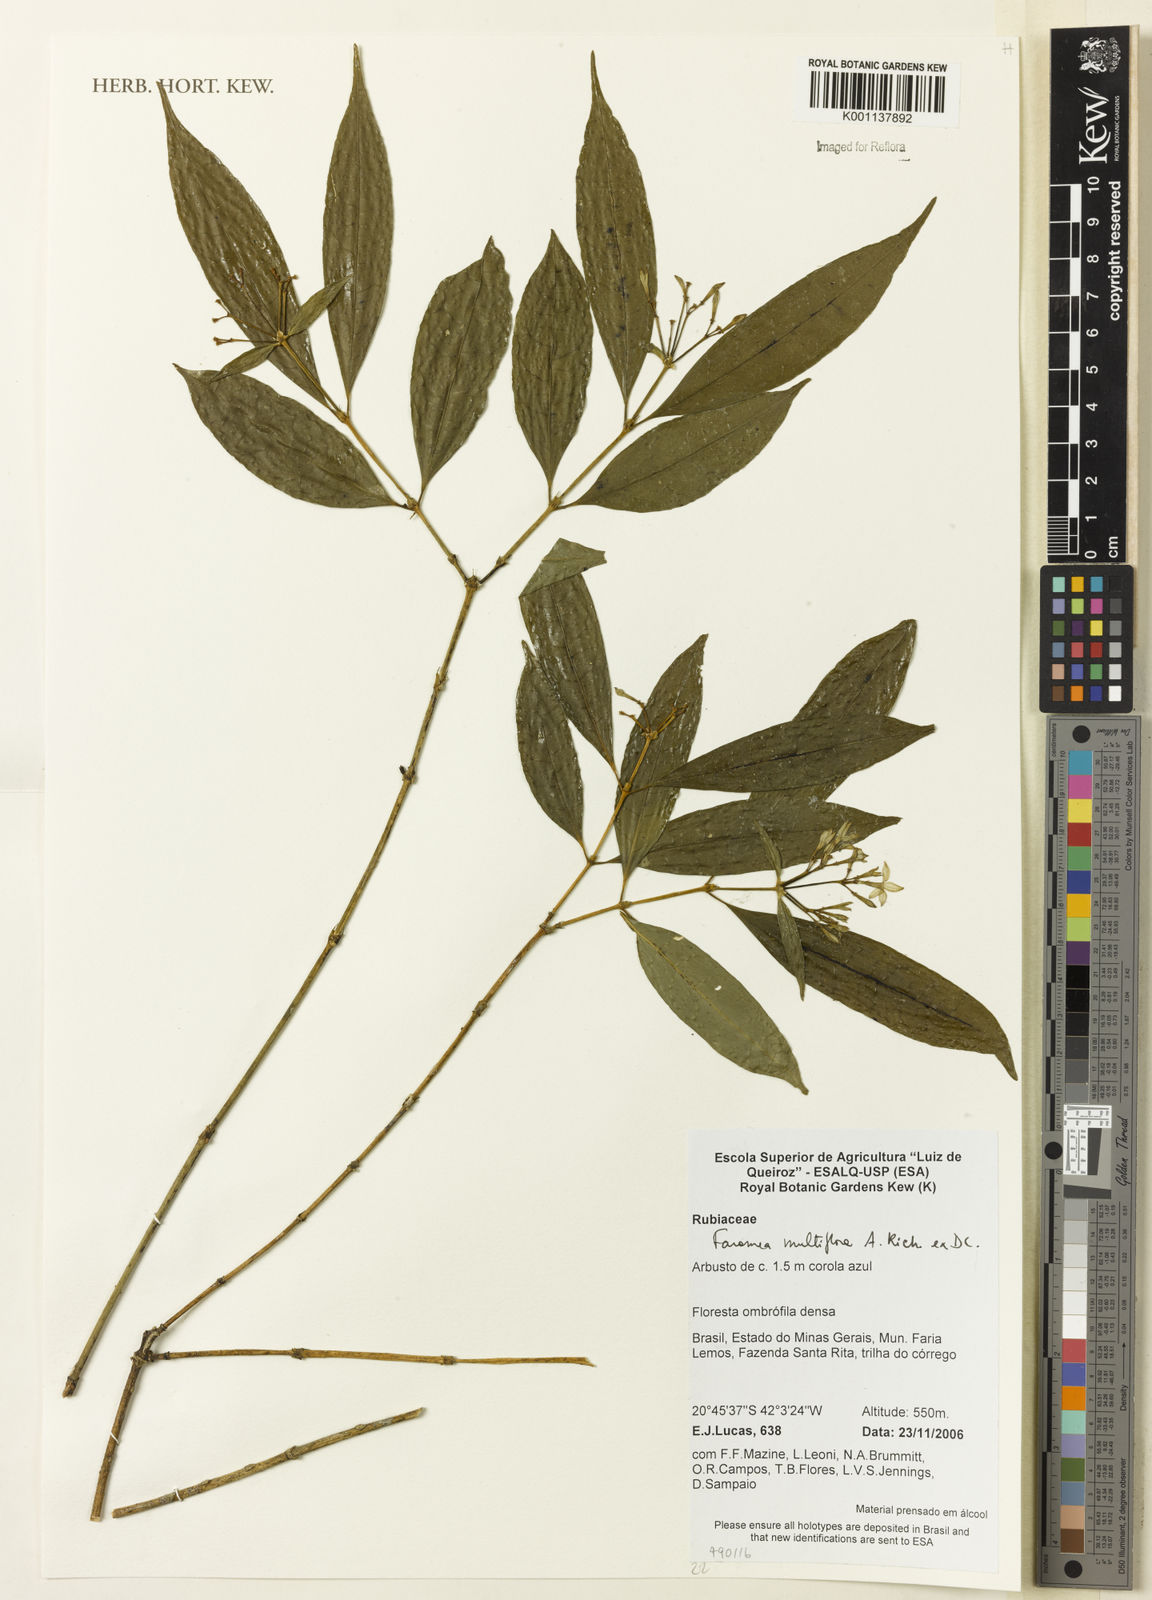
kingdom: Plantae
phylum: Tracheophyta
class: Magnoliopsida
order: Gentianales
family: Rubiaceae
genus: Faramea
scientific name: Faramea multiflora
